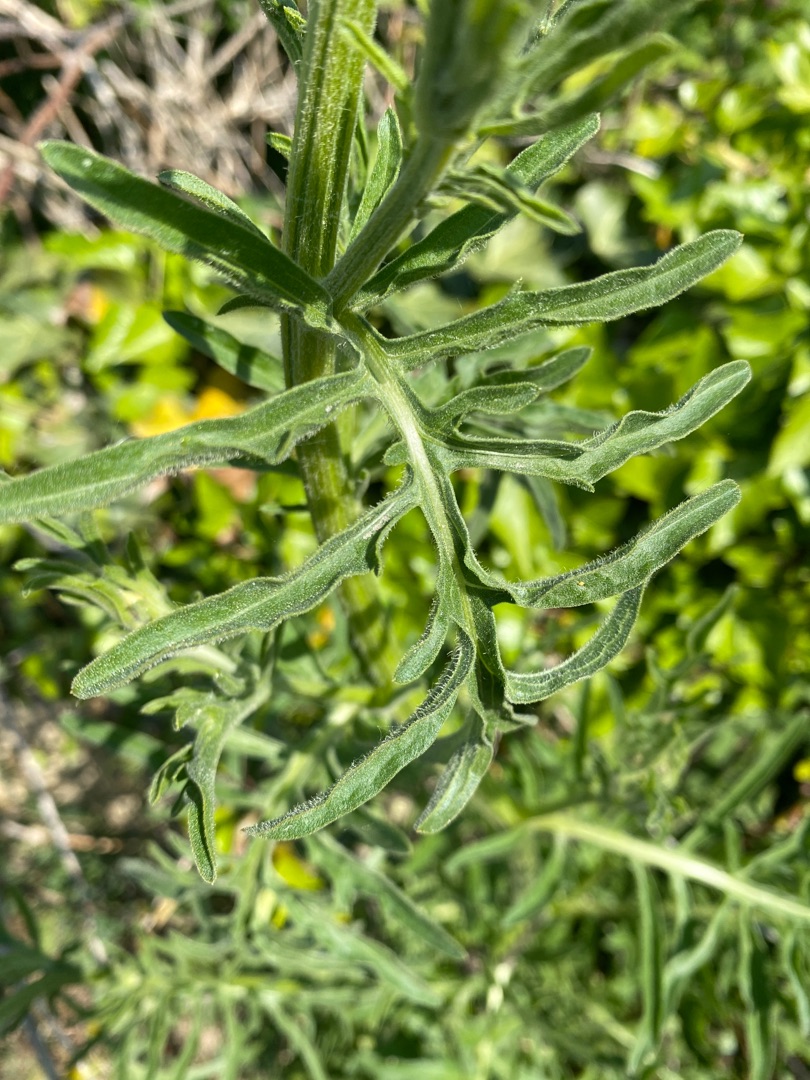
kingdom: Plantae
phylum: Tracheophyta
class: Magnoliopsida
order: Asterales
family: Asteraceae
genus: Centaurea
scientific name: Centaurea scabiosa
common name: Stor knopurt
